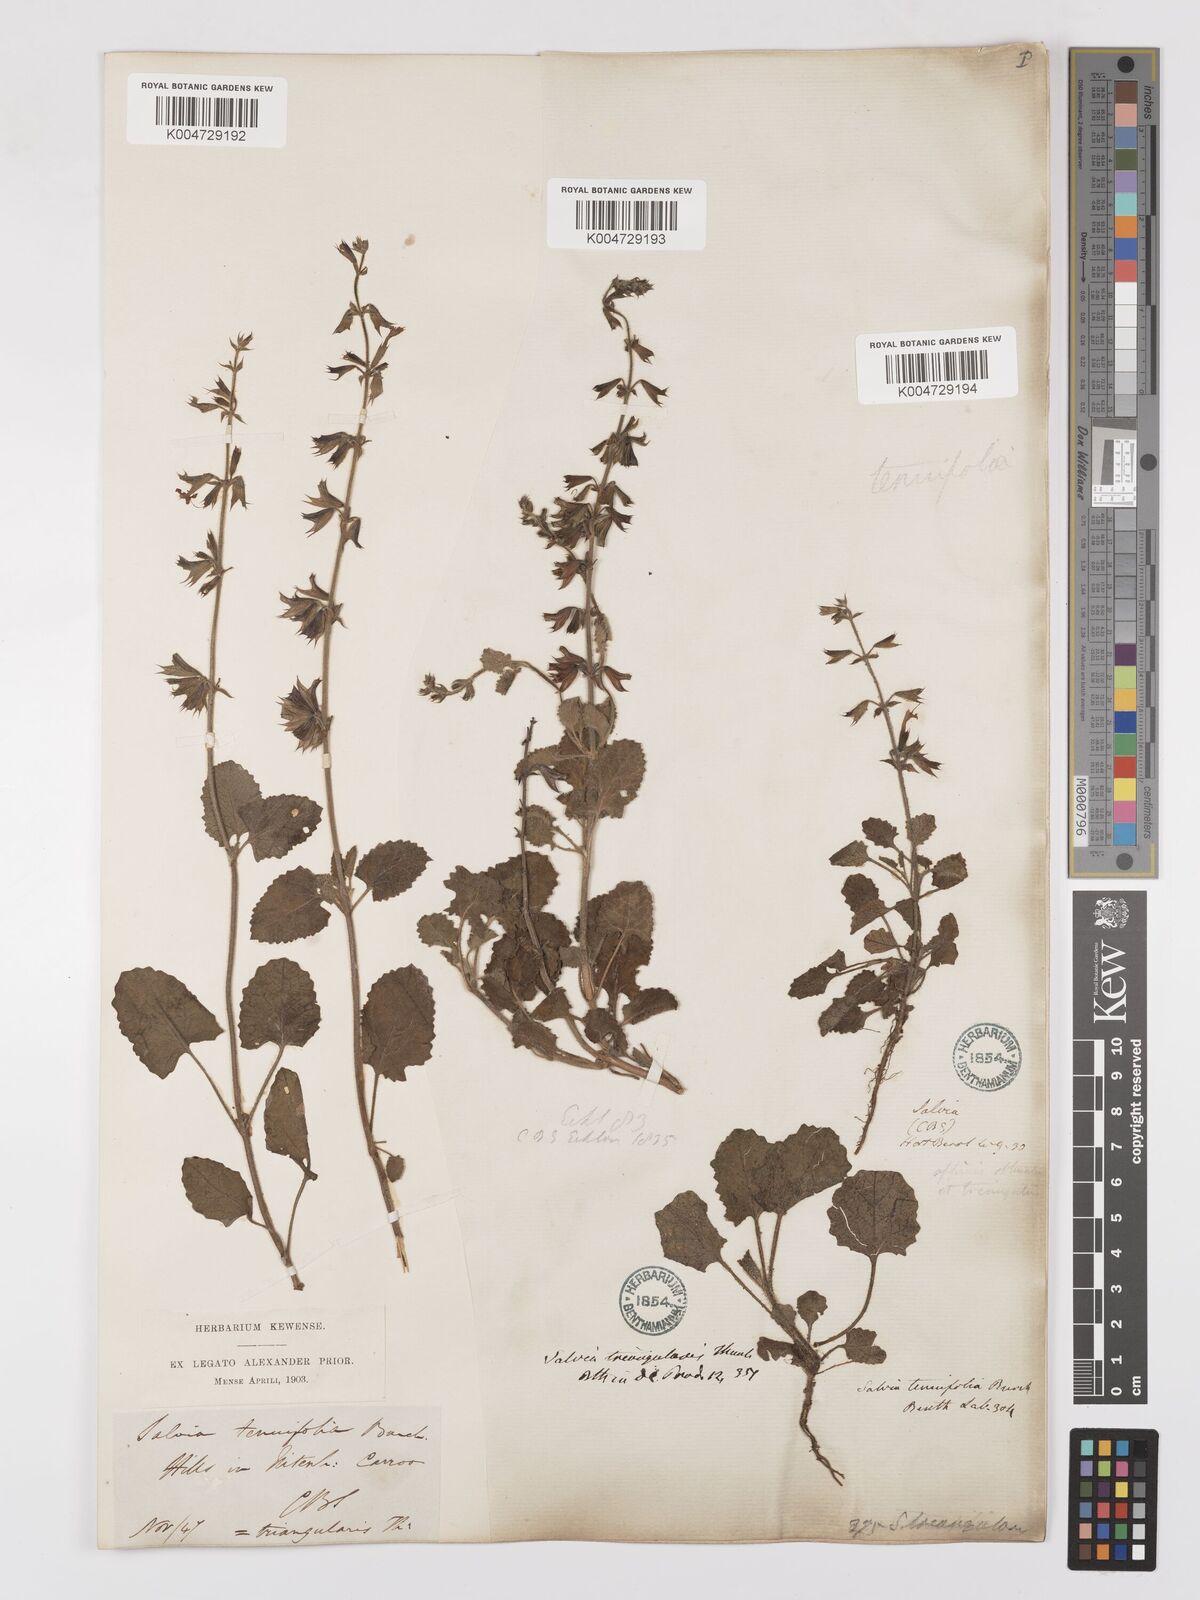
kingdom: Plantae
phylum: Tracheophyta
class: Magnoliopsida
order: Lamiales
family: Lamiaceae
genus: Salvia
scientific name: Salvia triangularis
